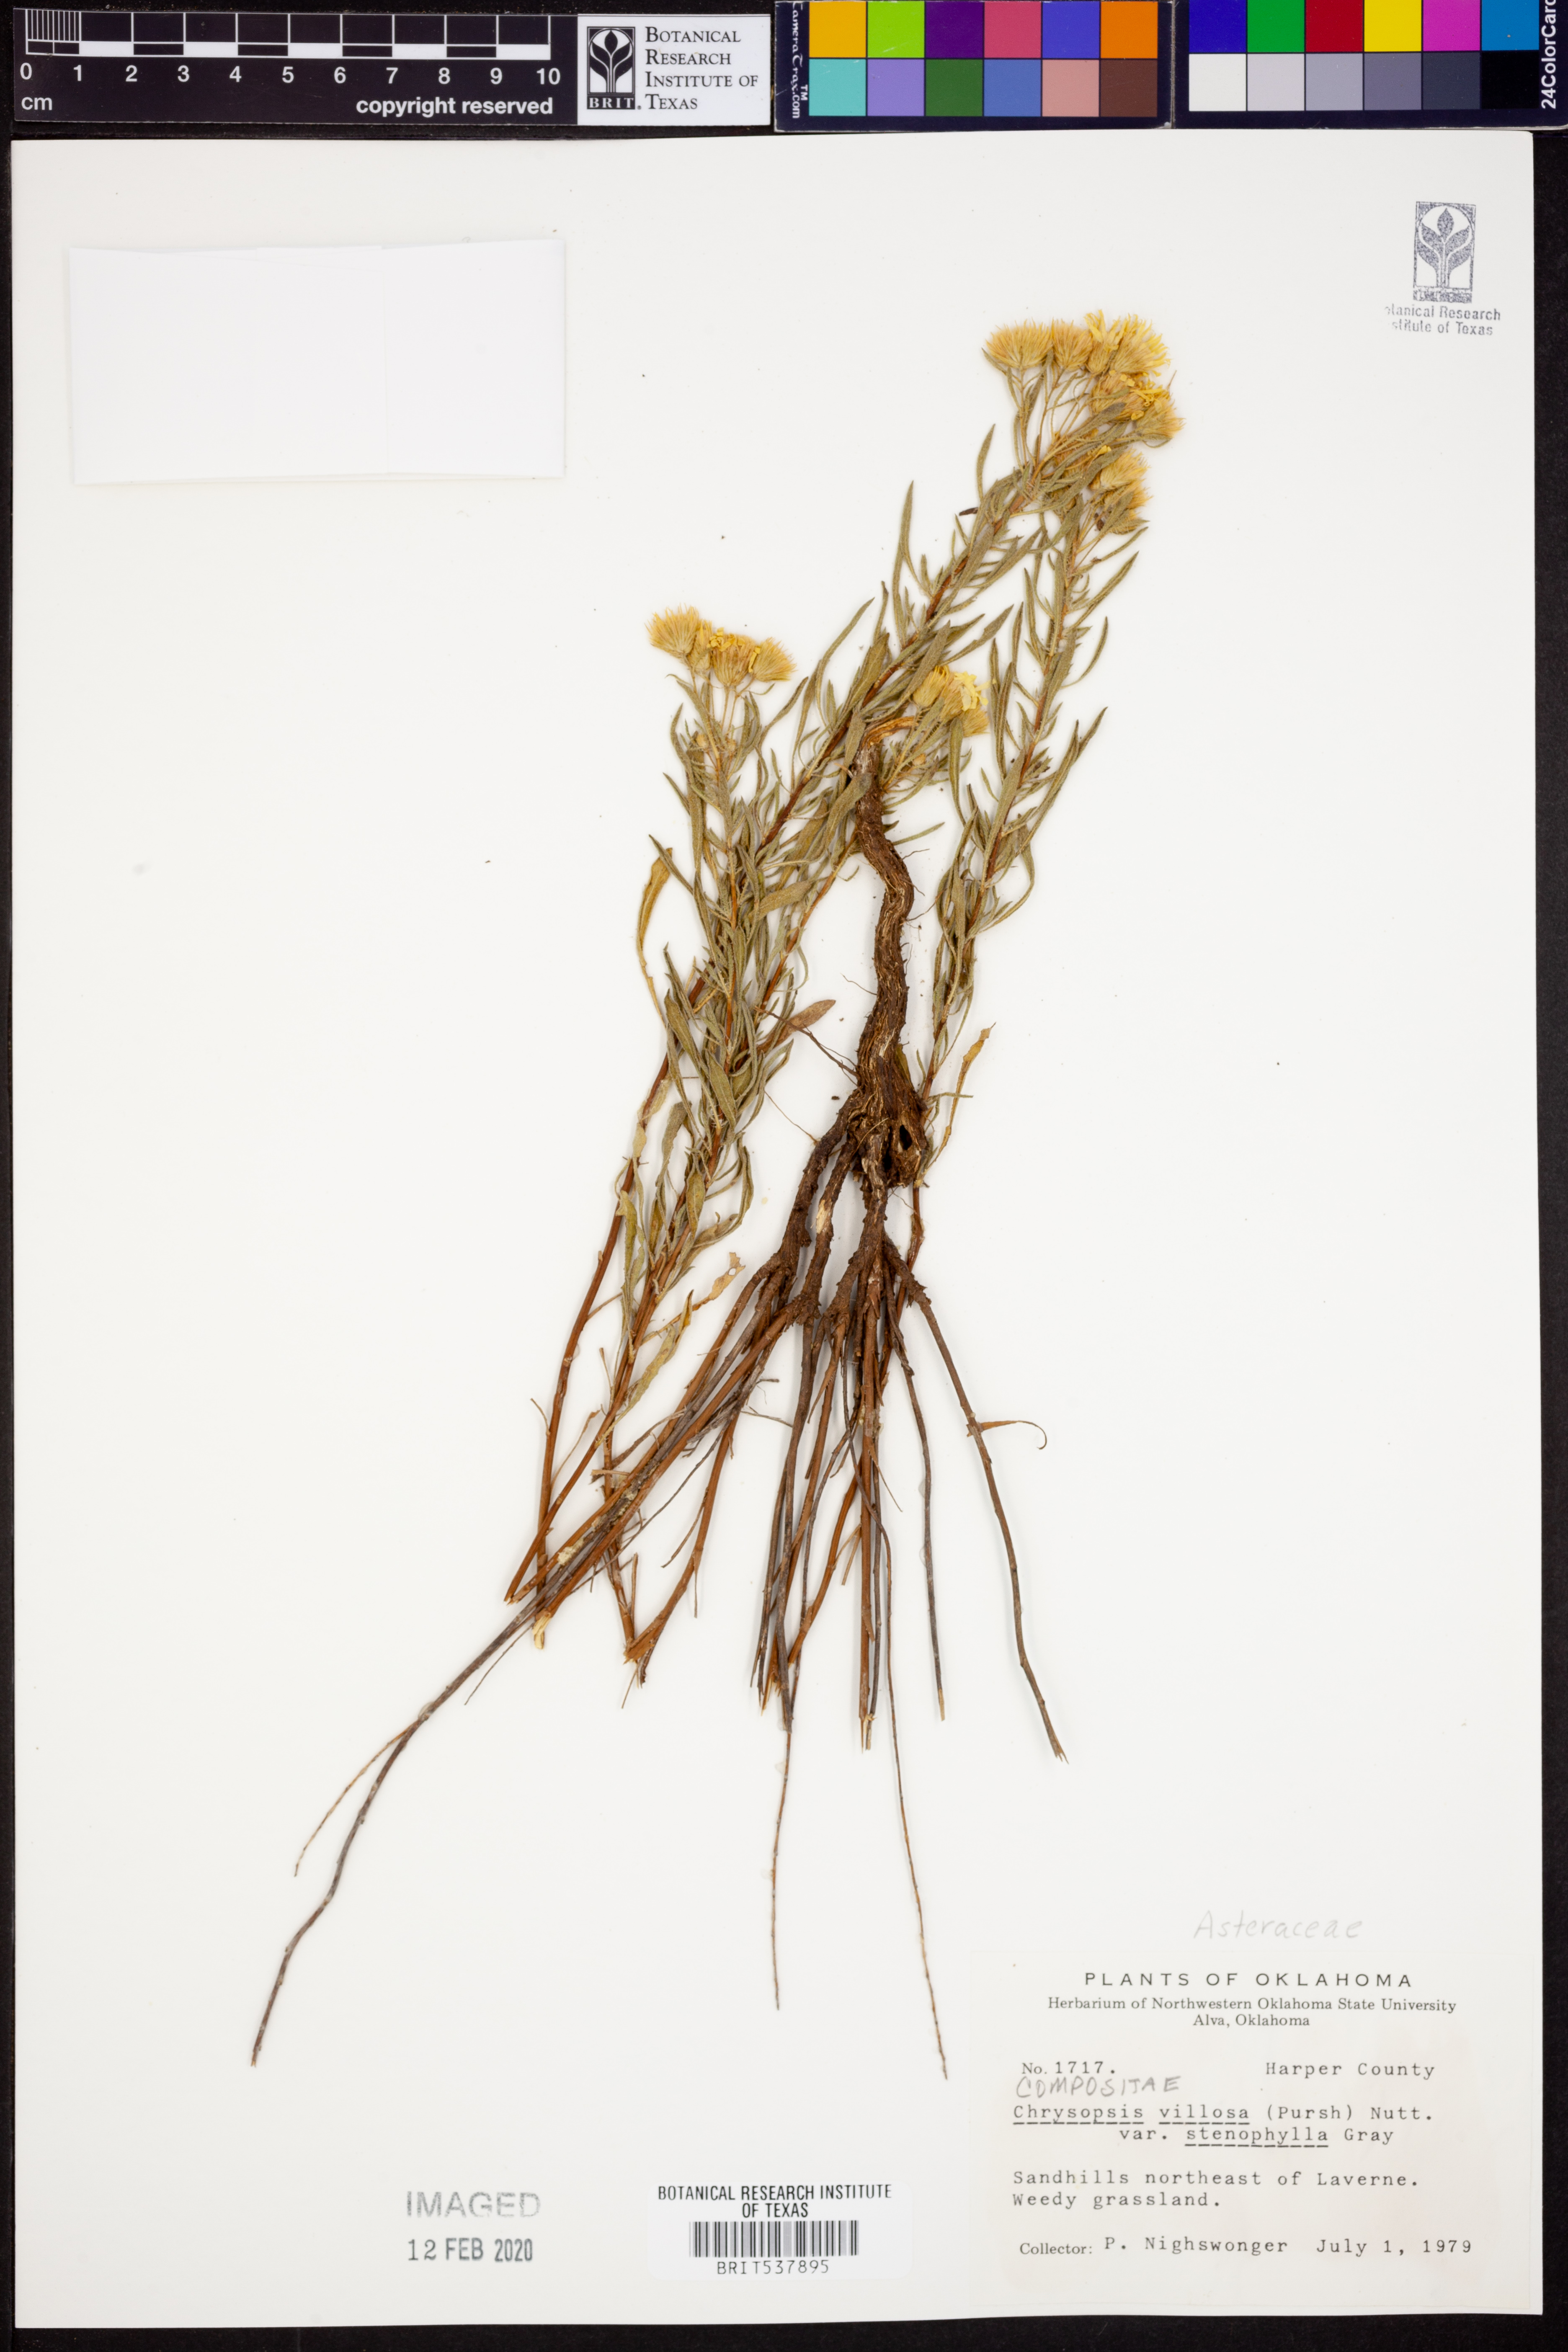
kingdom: Plantae
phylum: Tracheophyta
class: Magnoliopsida
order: Asterales
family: Asteraceae
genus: Heterotheca
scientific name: Heterotheca stenophylla
